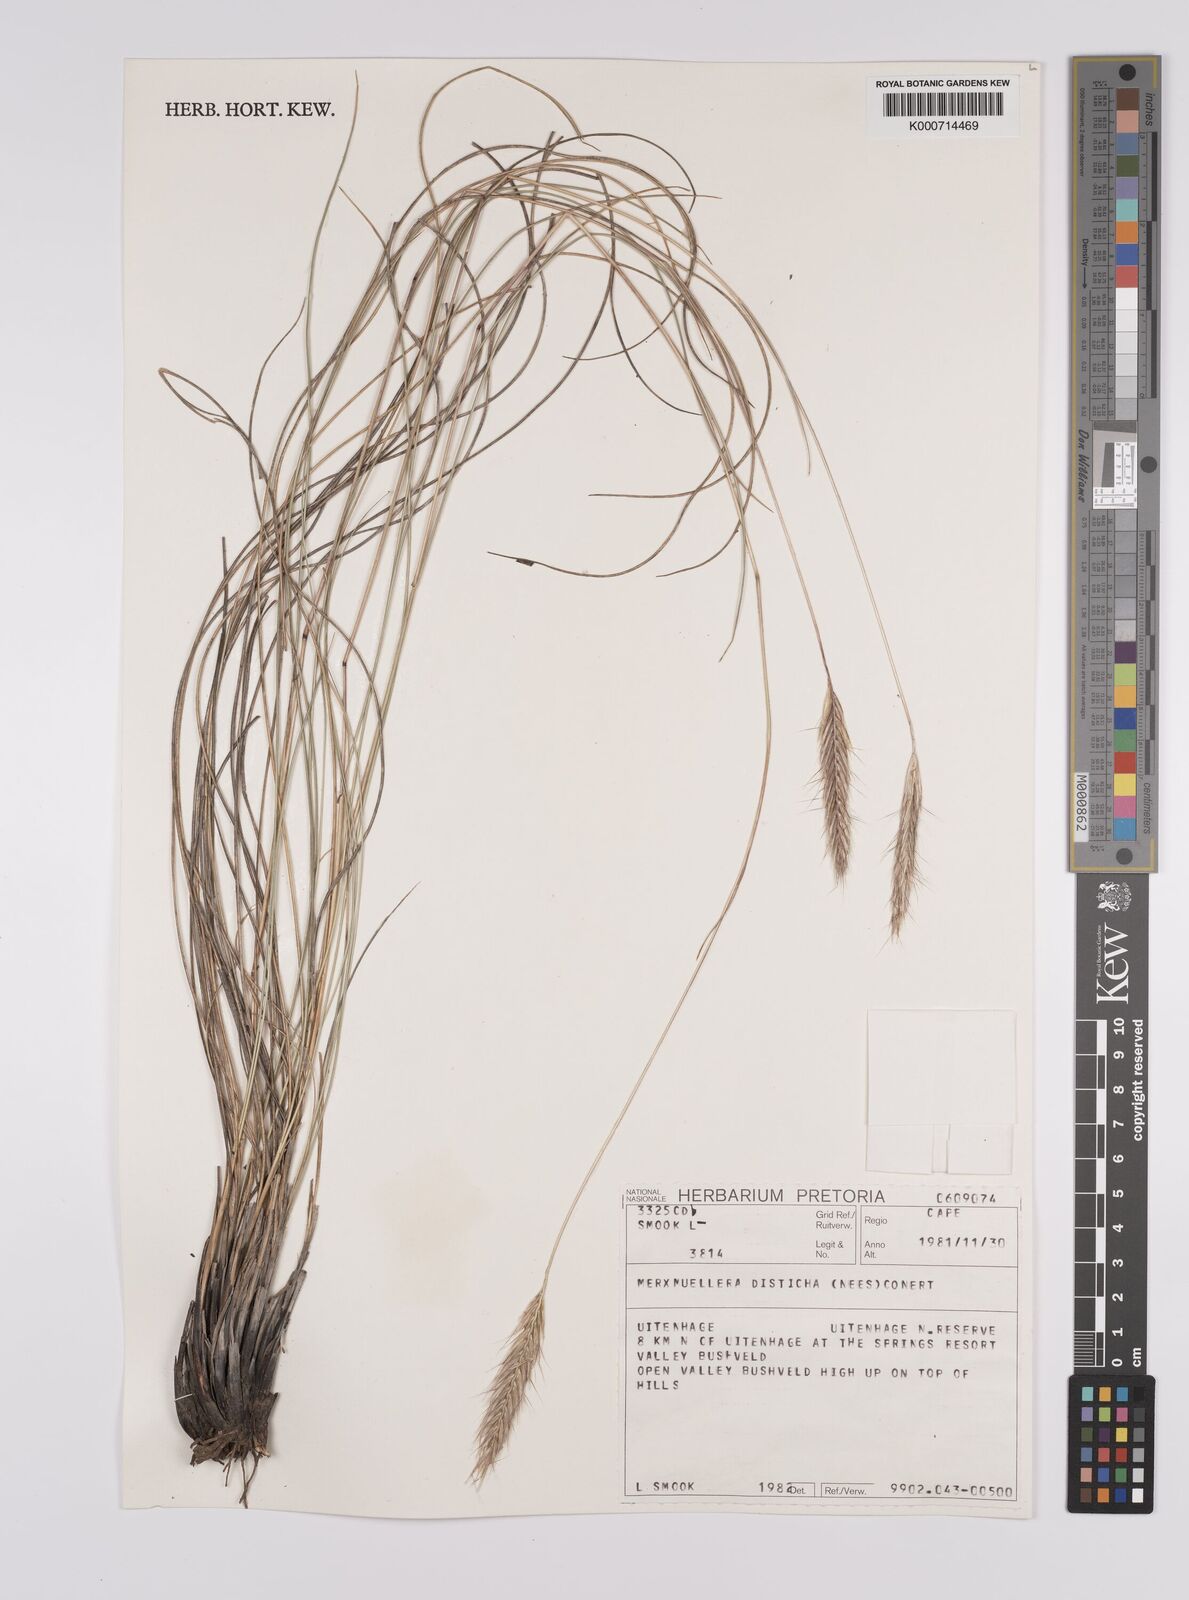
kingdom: Plantae
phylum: Tracheophyta
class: Liliopsida
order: Poales
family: Poaceae
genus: Tenaxia
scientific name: Tenaxia disticha
